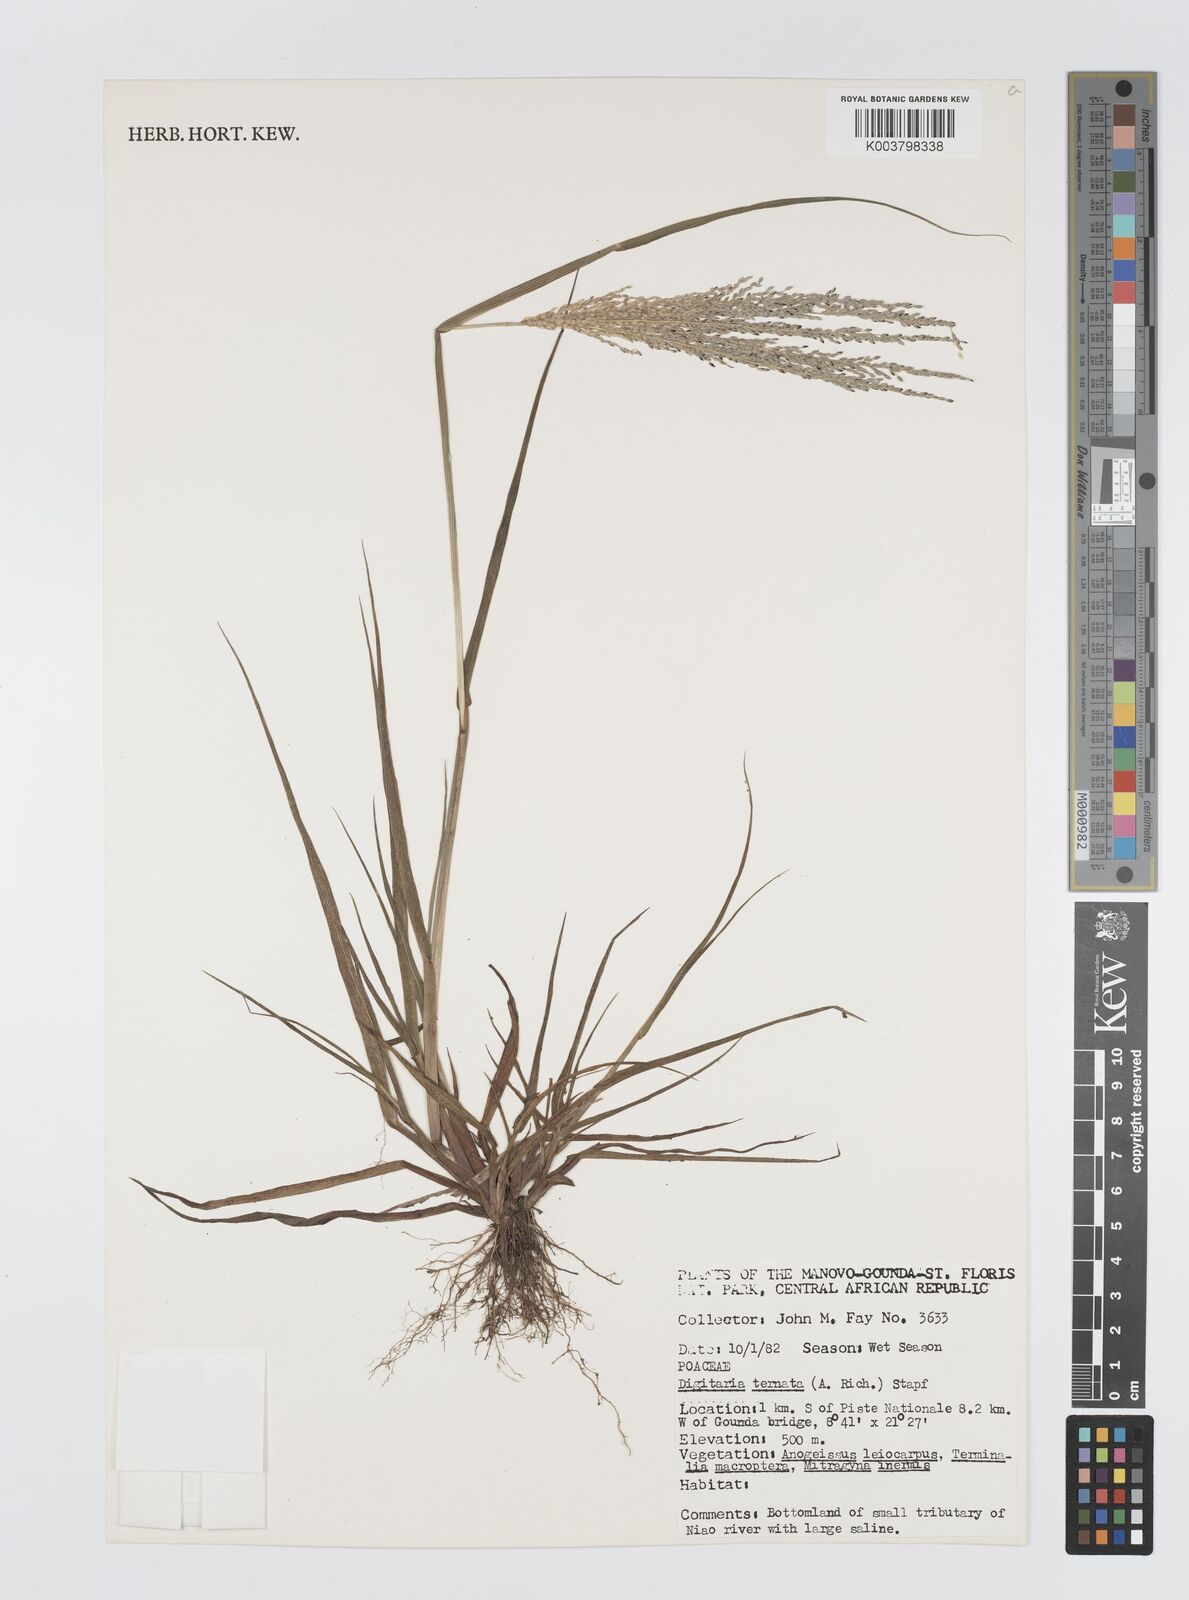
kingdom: Plantae
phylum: Tracheophyta
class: Liliopsida
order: Poales
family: Poaceae
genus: Digitaria
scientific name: Digitaria ternata
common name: Blackseed crabgrass
